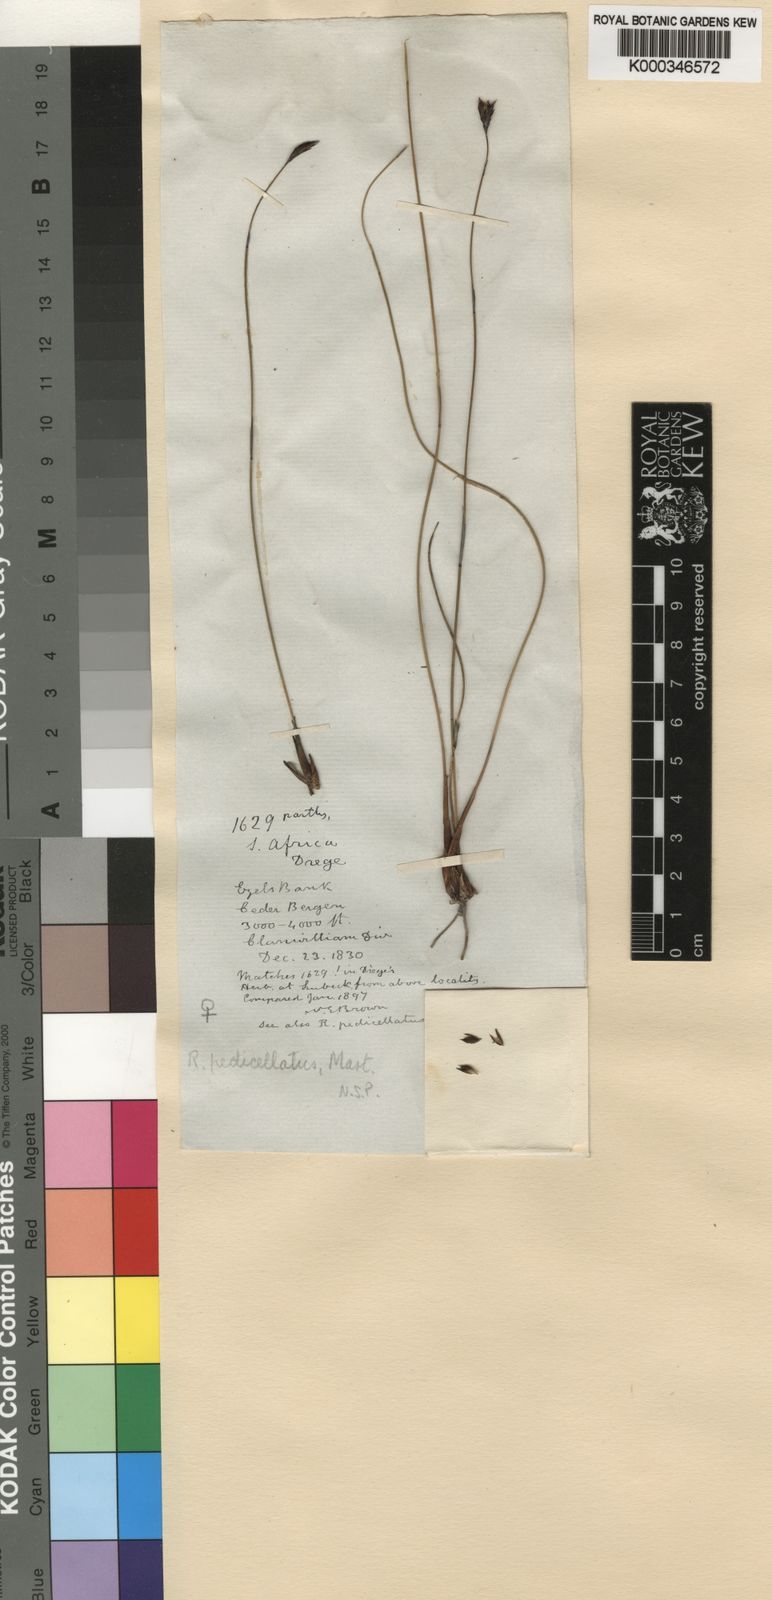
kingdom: Plantae
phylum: Tracheophyta
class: Liliopsida
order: Poales
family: Restionaceae
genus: Restio
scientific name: Restio pedicellatus
